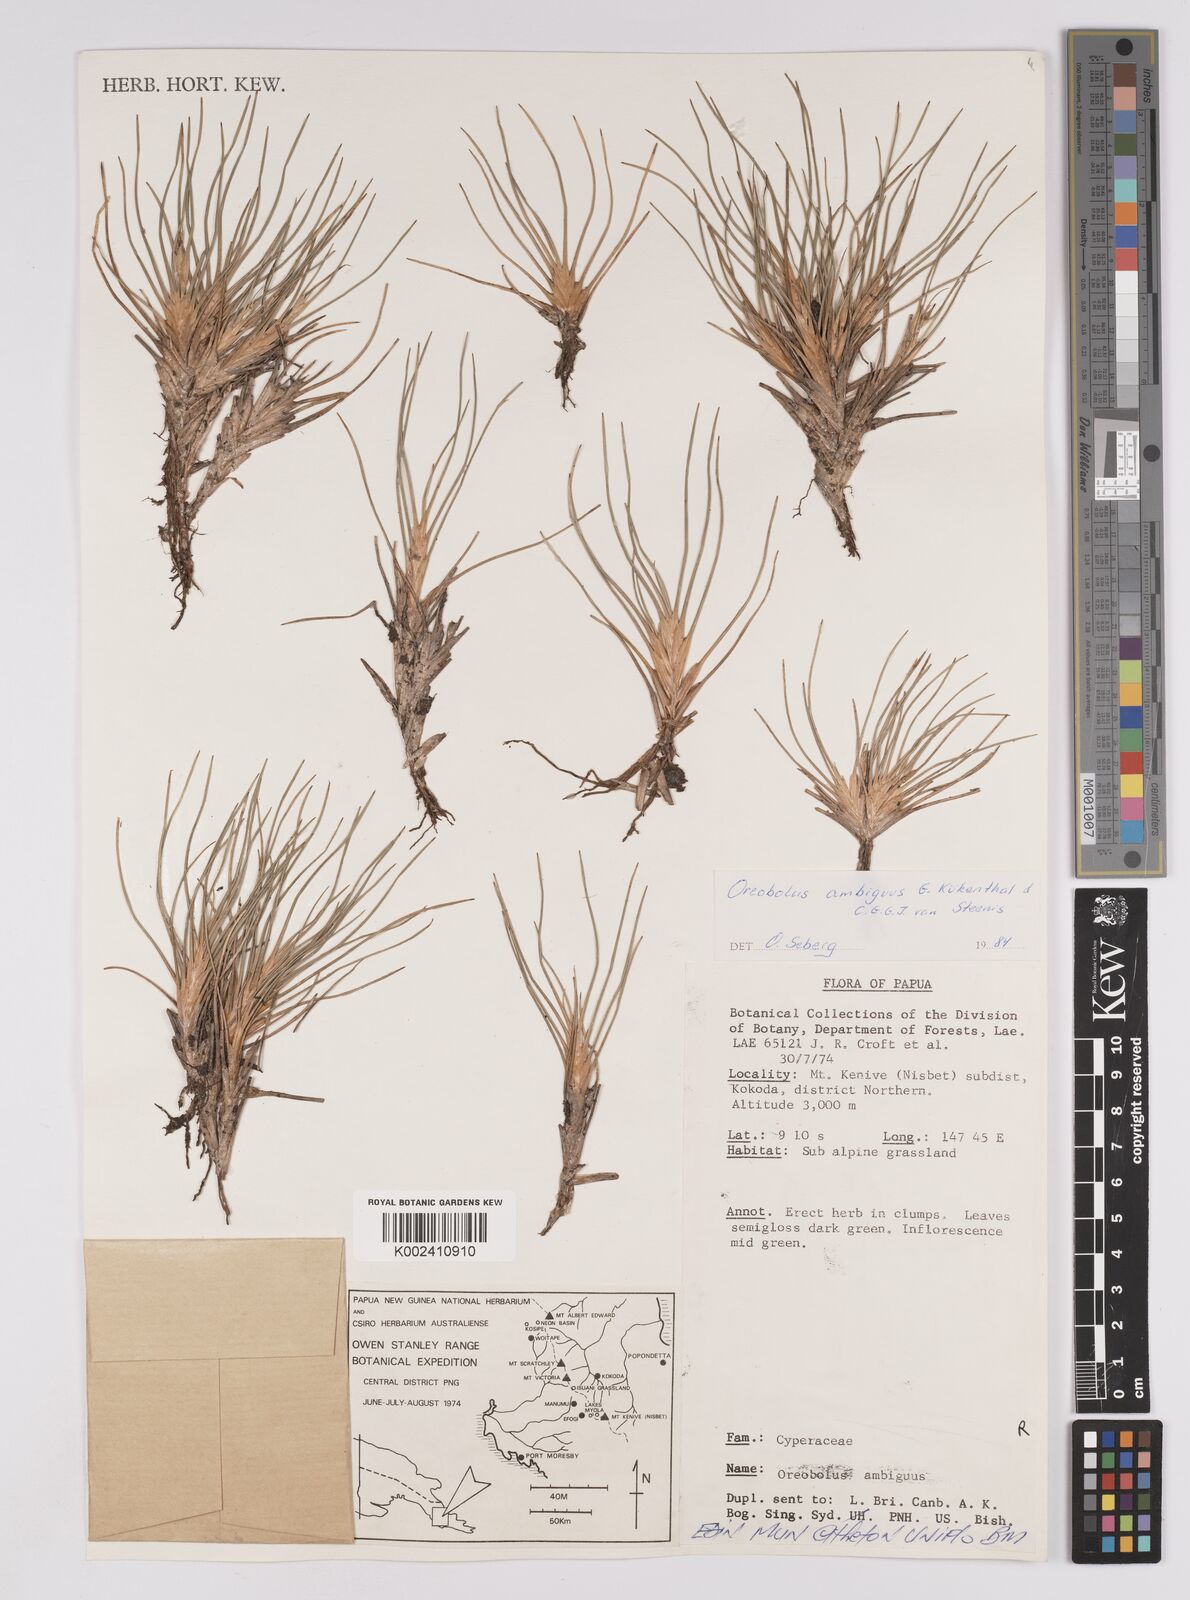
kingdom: Plantae
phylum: Tracheophyta
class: Liliopsida
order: Poales
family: Cyperaceae
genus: Oreobolus
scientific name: Oreobolus ambiguus
